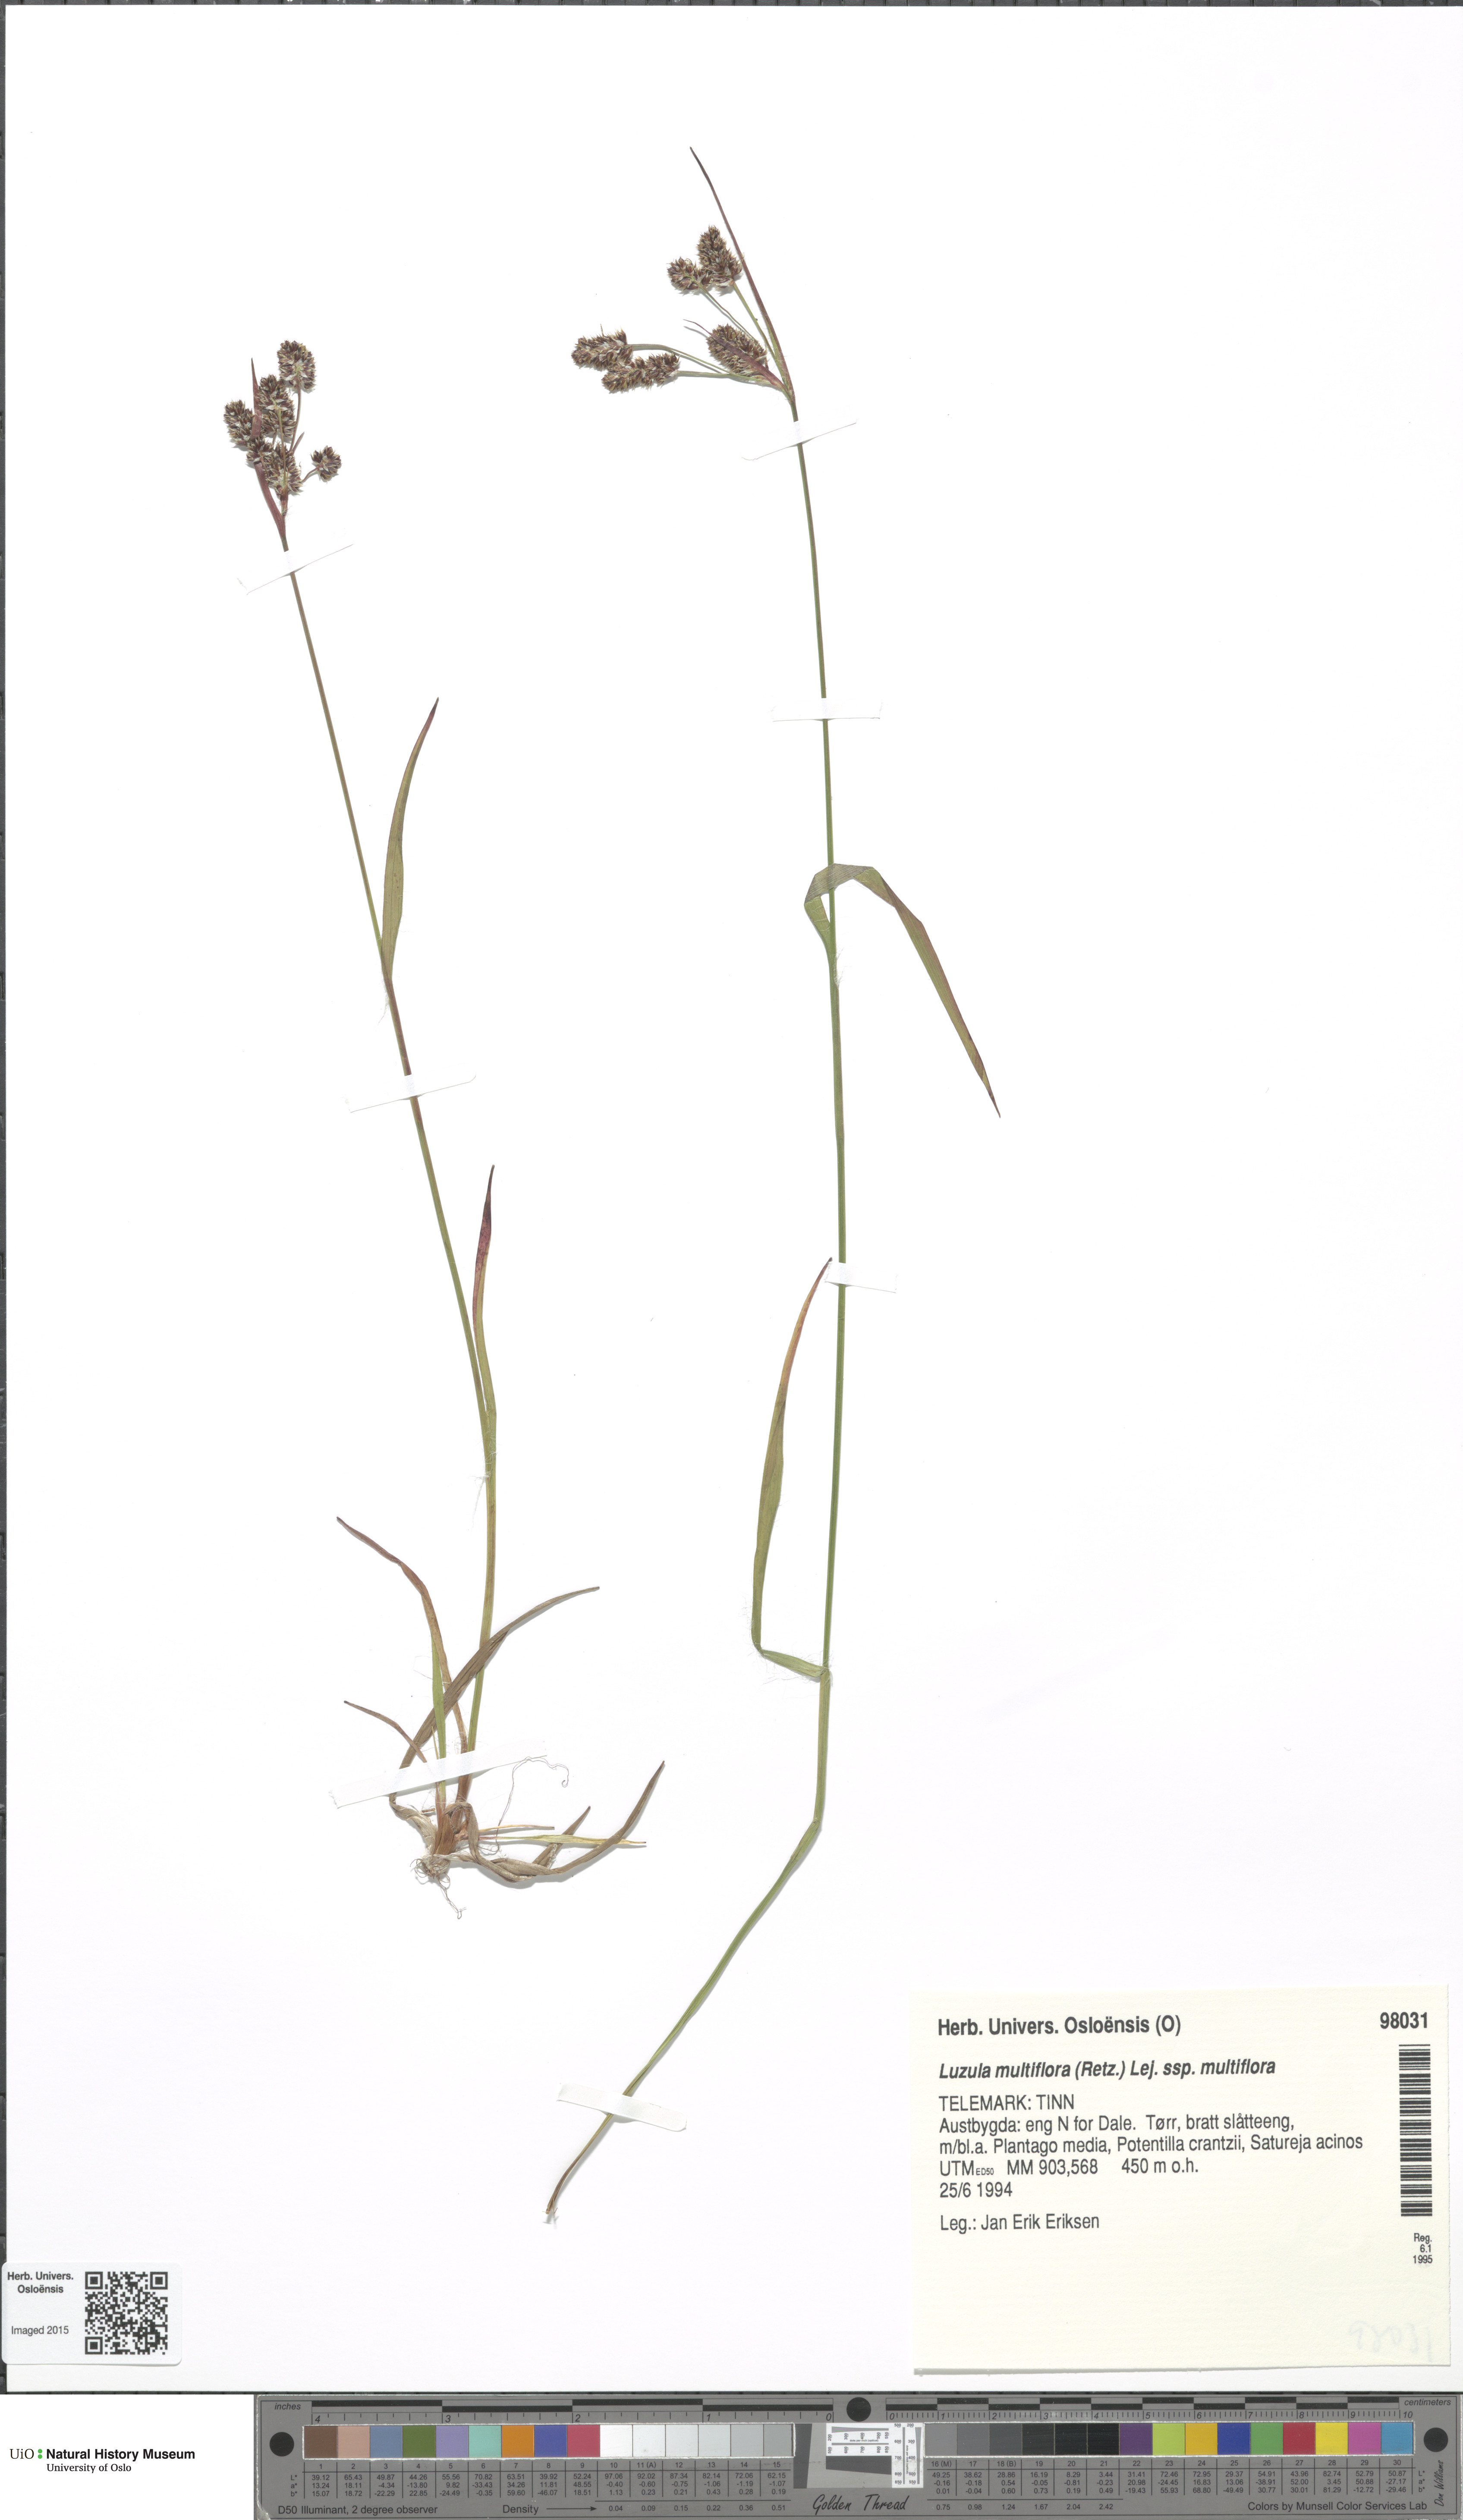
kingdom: Plantae
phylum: Tracheophyta
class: Liliopsida
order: Poales
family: Juncaceae
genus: Luzula
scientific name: Luzula multiflora
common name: Heath wood-rush
